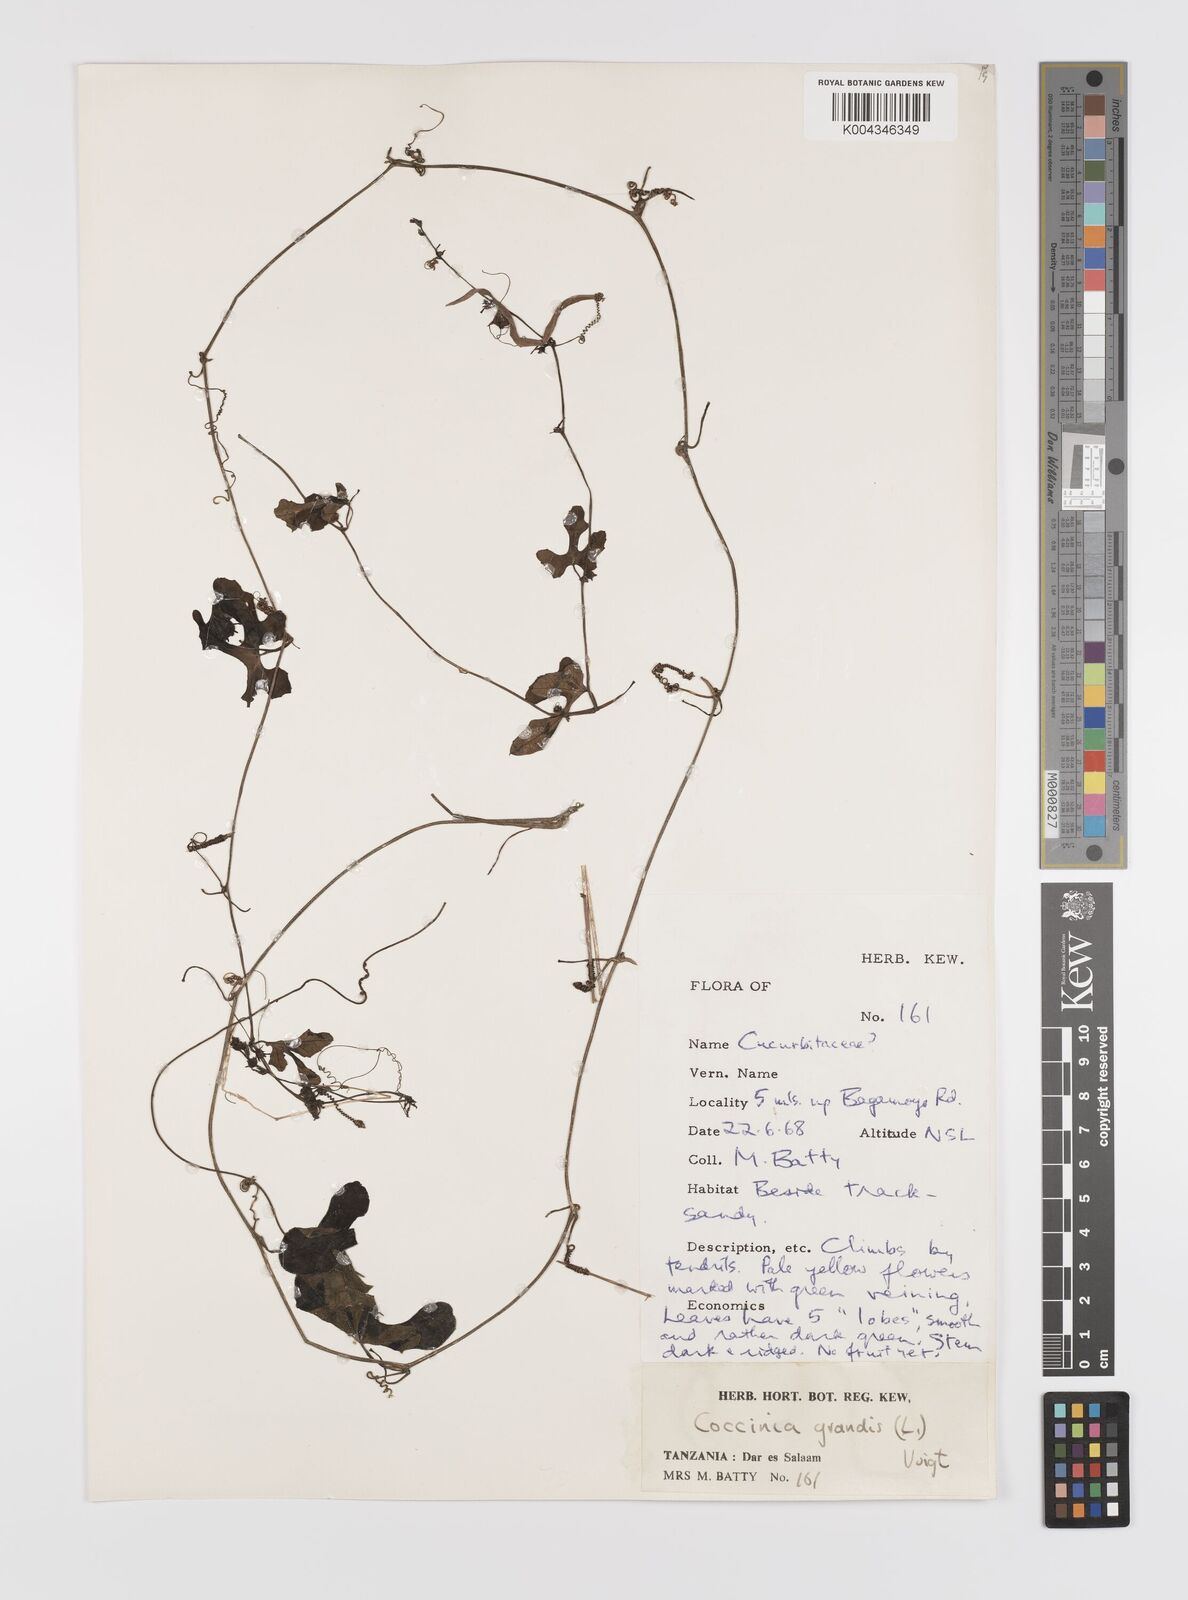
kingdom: Plantae
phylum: Tracheophyta
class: Magnoliopsida
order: Cucurbitales
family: Cucurbitaceae
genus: Coccinia
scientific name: Coccinia grandis
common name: Ivy gourd
